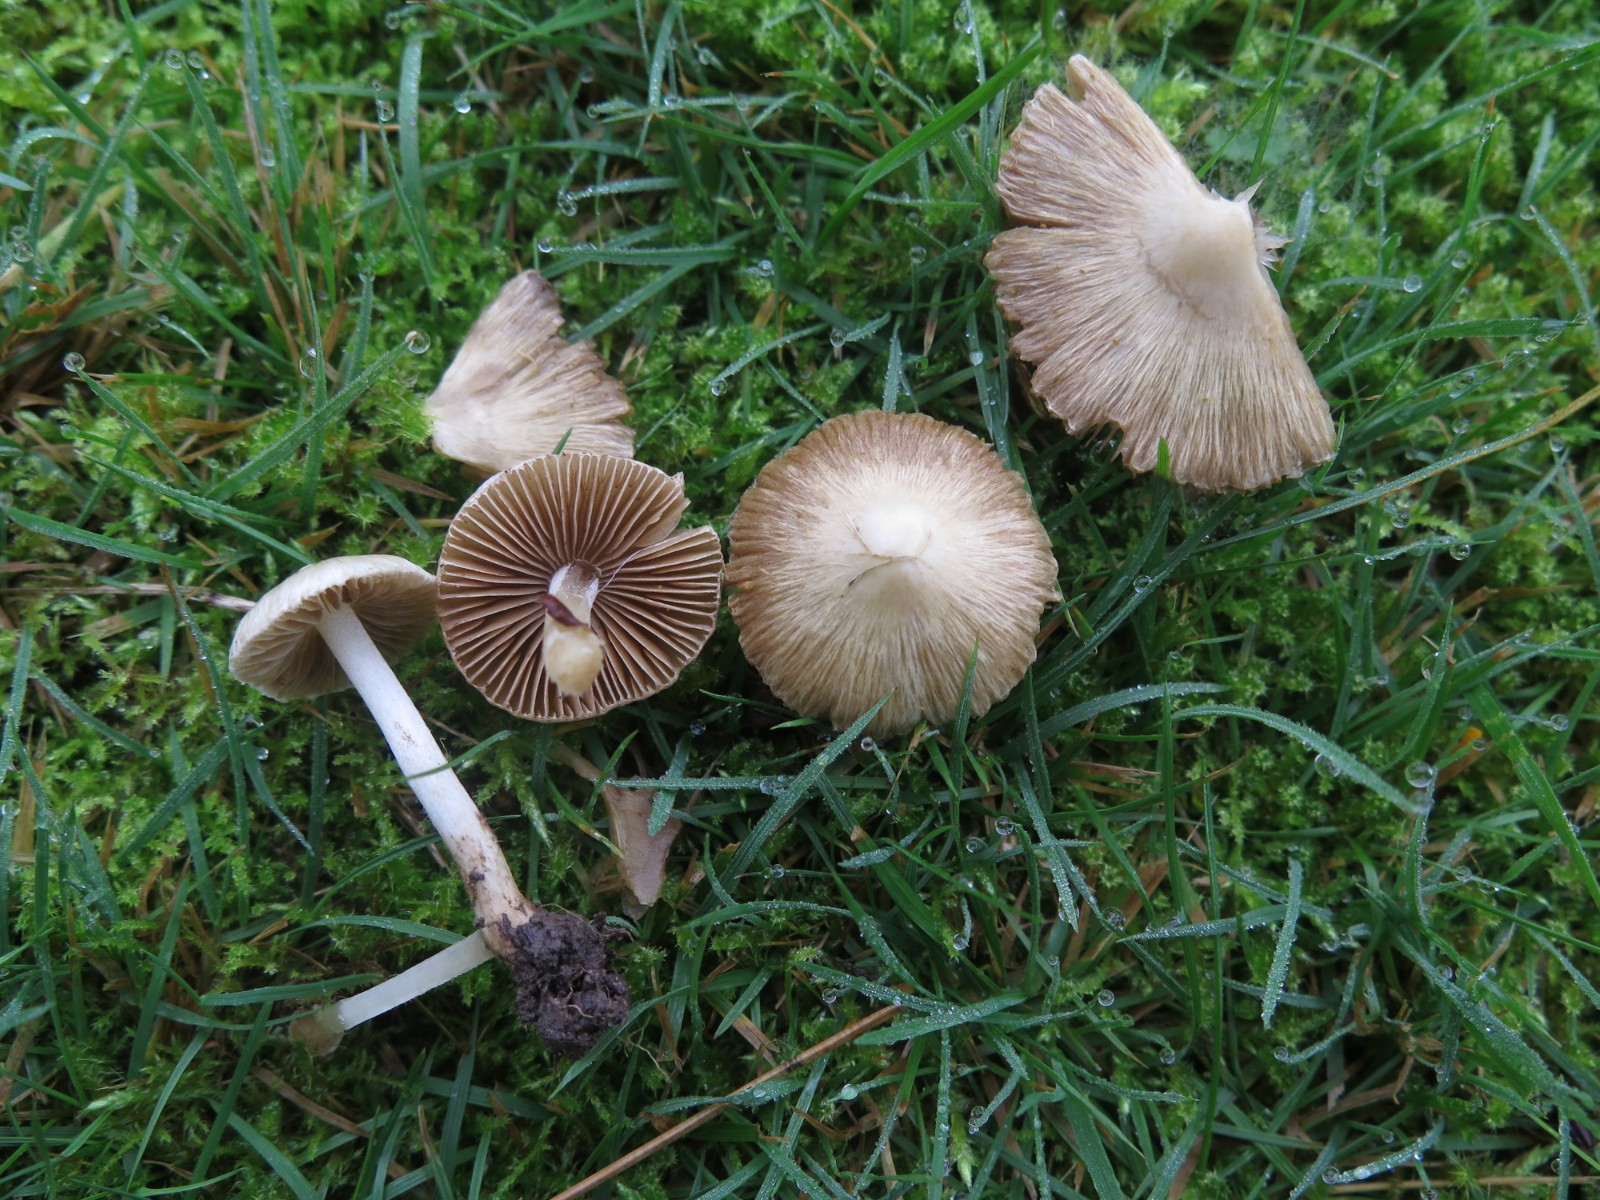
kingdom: Fungi
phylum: Basidiomycota
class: Agaricomycetes
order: Agaricales
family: Inocybaceae
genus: Inocybe
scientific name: Inocybe
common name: almindelig trævlhat
